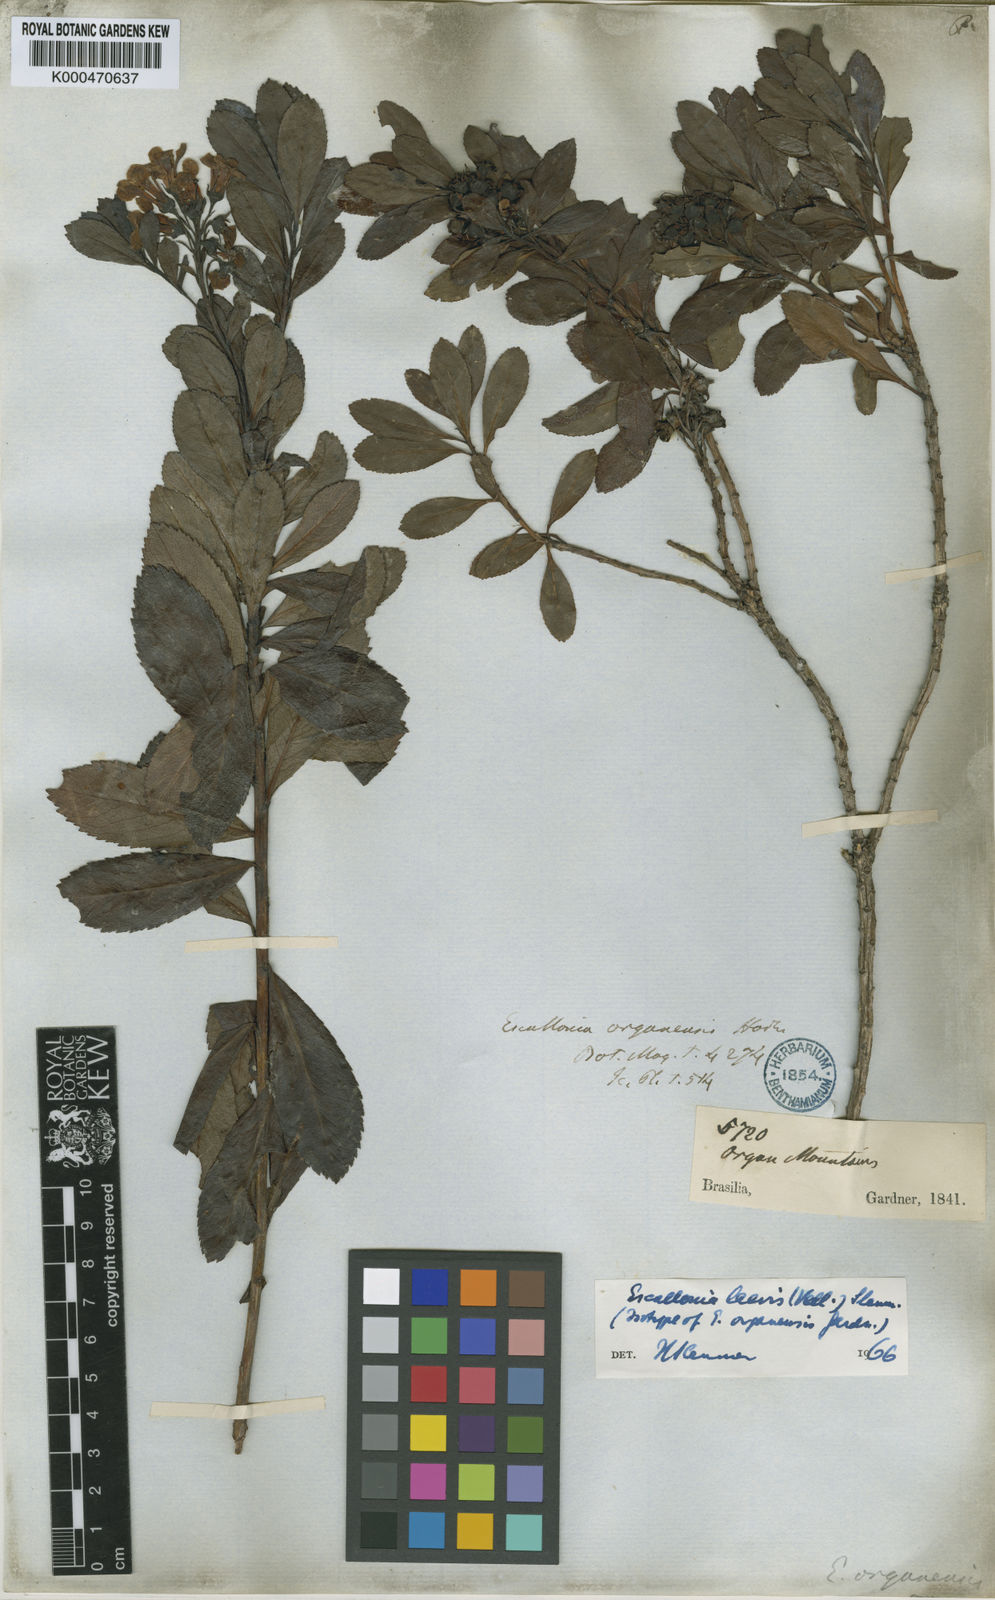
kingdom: Plantae
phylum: Tracheophyta
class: Magnoliopsida
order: Escalloniales
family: Escalloniaceae
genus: Escallonia
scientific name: Escallonia laevis
